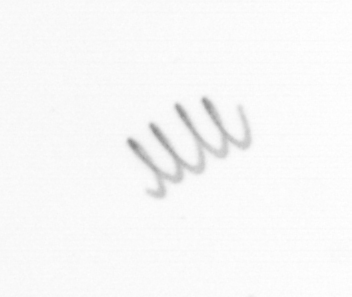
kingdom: Chromista
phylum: Ochrophyta
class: Bacillariophyceae
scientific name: Bacillariophyceae
